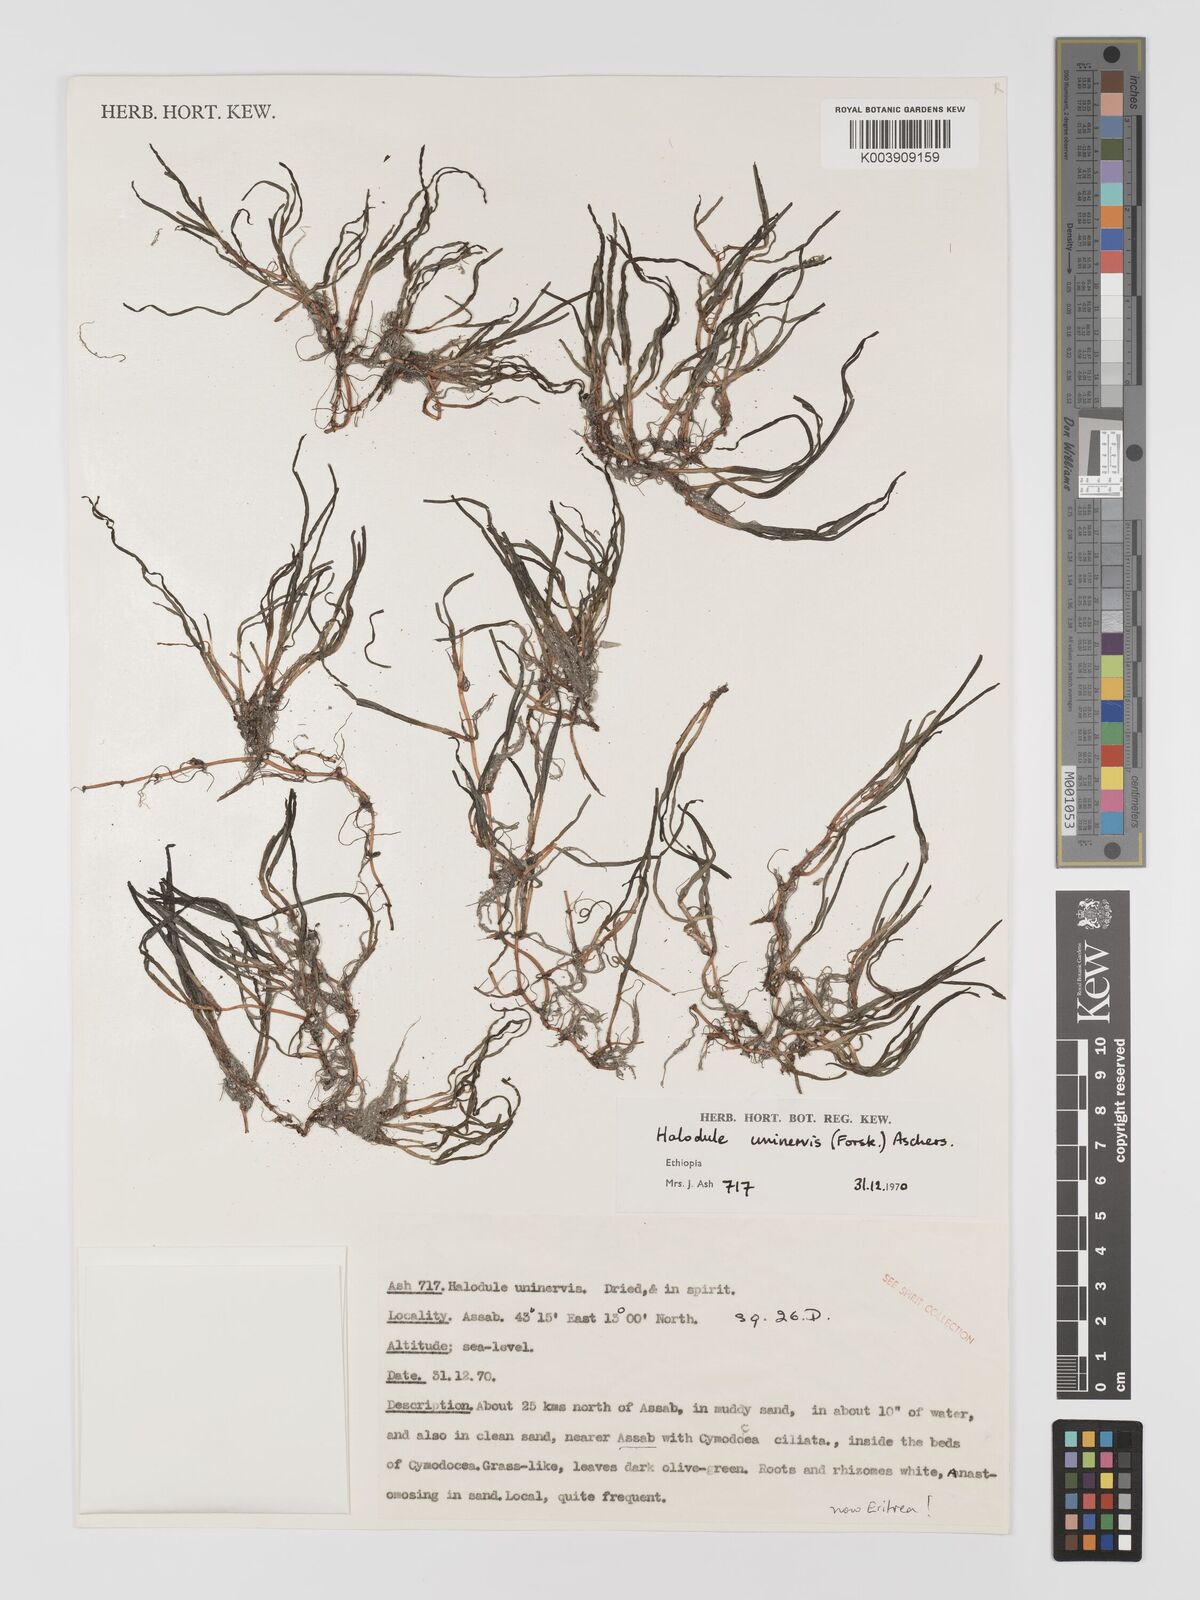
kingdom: Plantae
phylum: Tracheophyta
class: Liliopsida
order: Alismatales
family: Cymodoceaceae
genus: Halodule
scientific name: Halodule uninervis
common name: Narrowleaf seagrass
